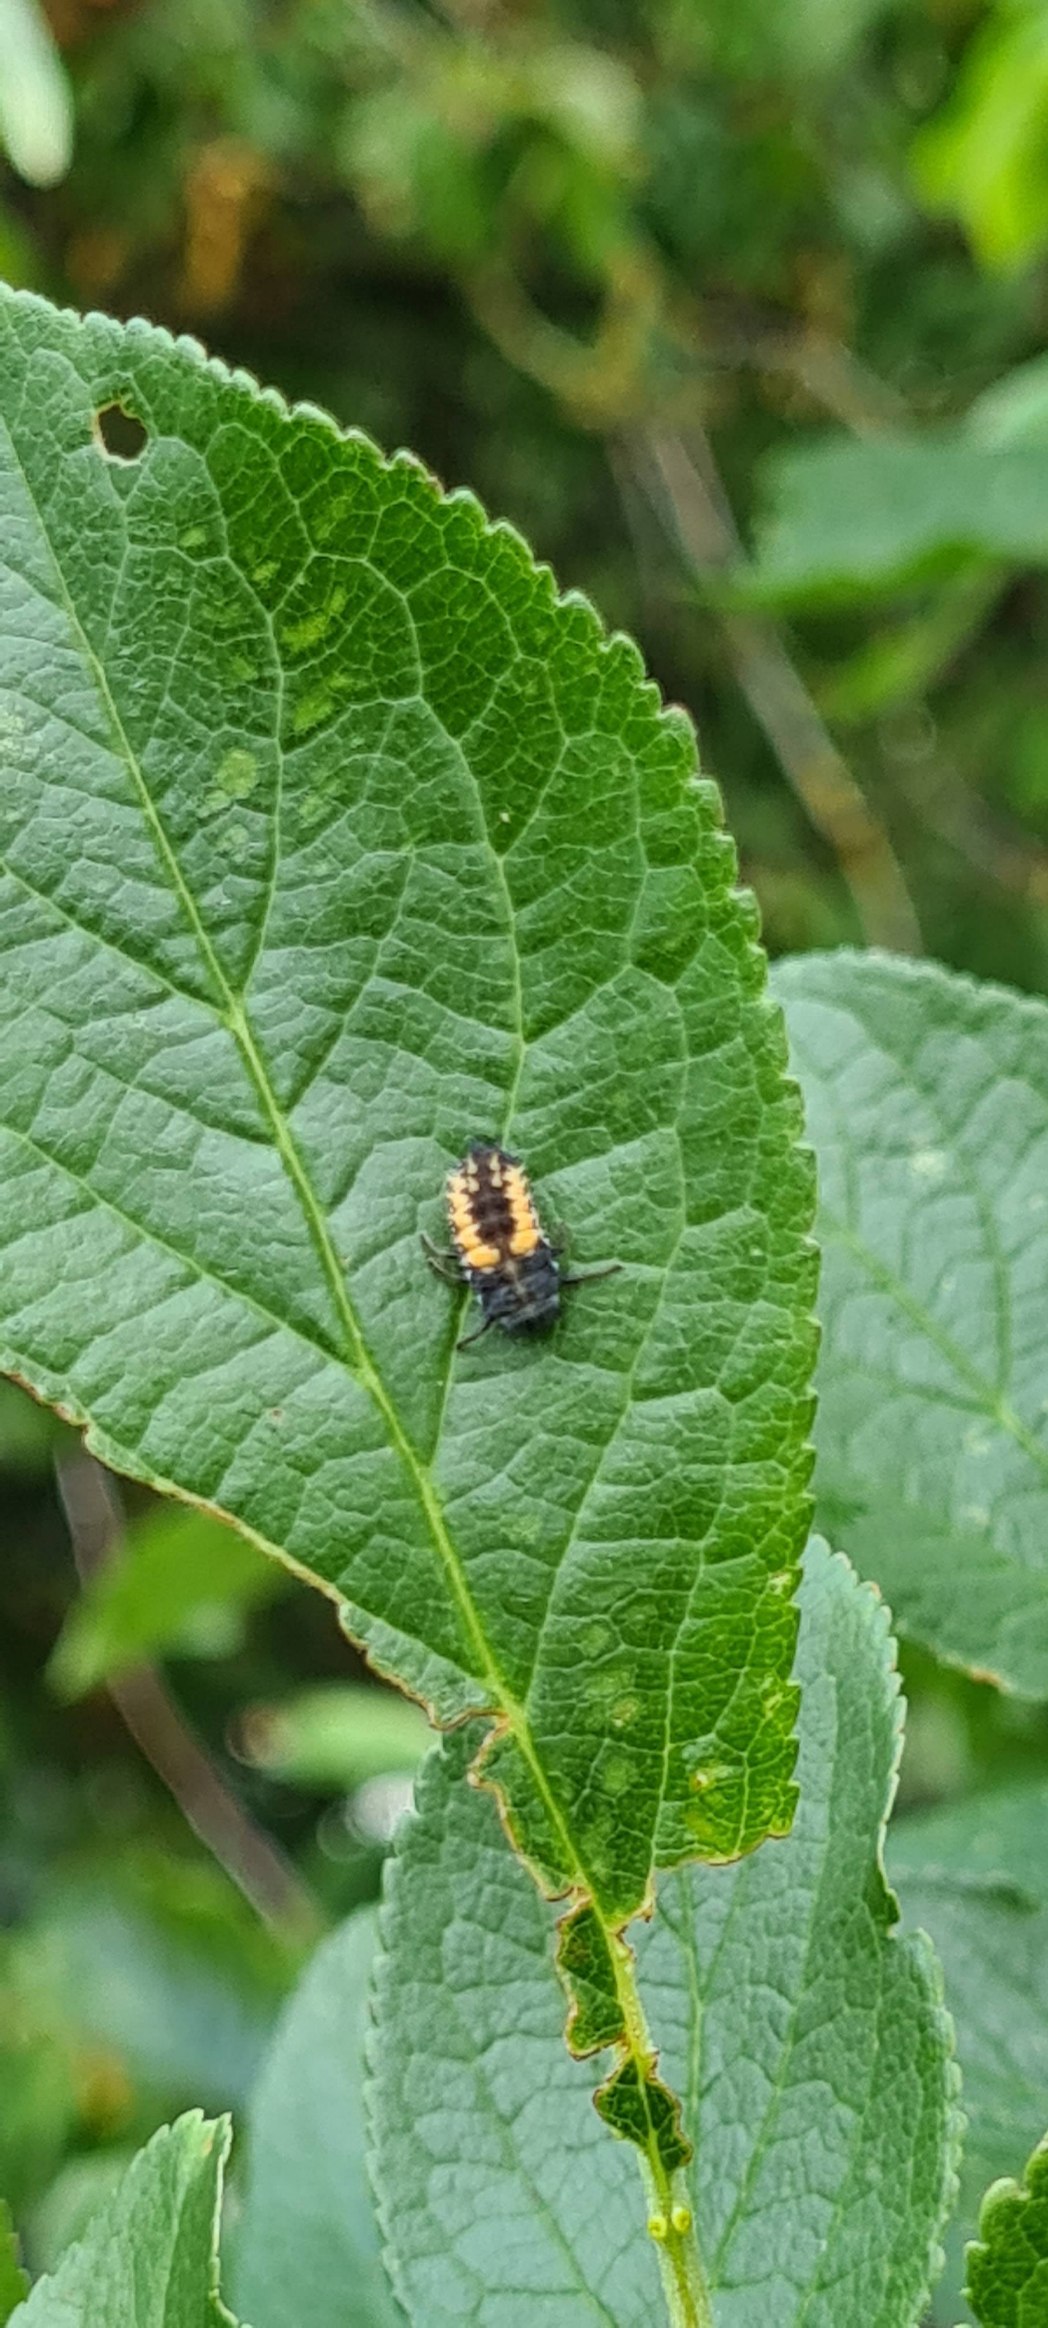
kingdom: Animalia
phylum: Arthropoda
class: Insecta
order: Coleoptera
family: Coccinellidae
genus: Harmonia
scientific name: Harmonia axyridis
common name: Harlekinmariehøne
